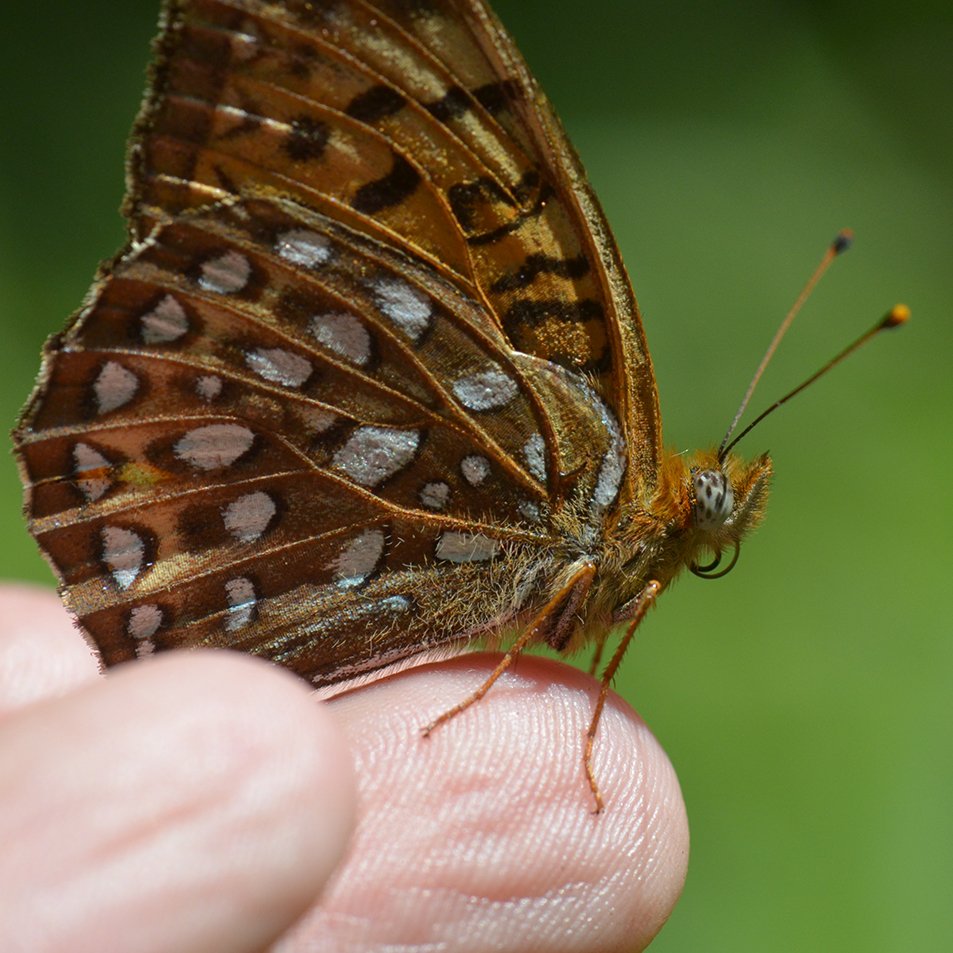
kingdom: Animalia
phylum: Arthropoda
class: Insecta
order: Lepidoptera
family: Nymphalidae
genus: Speyeria
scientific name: Speyeria atlantis
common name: Atlantis Fritillary
